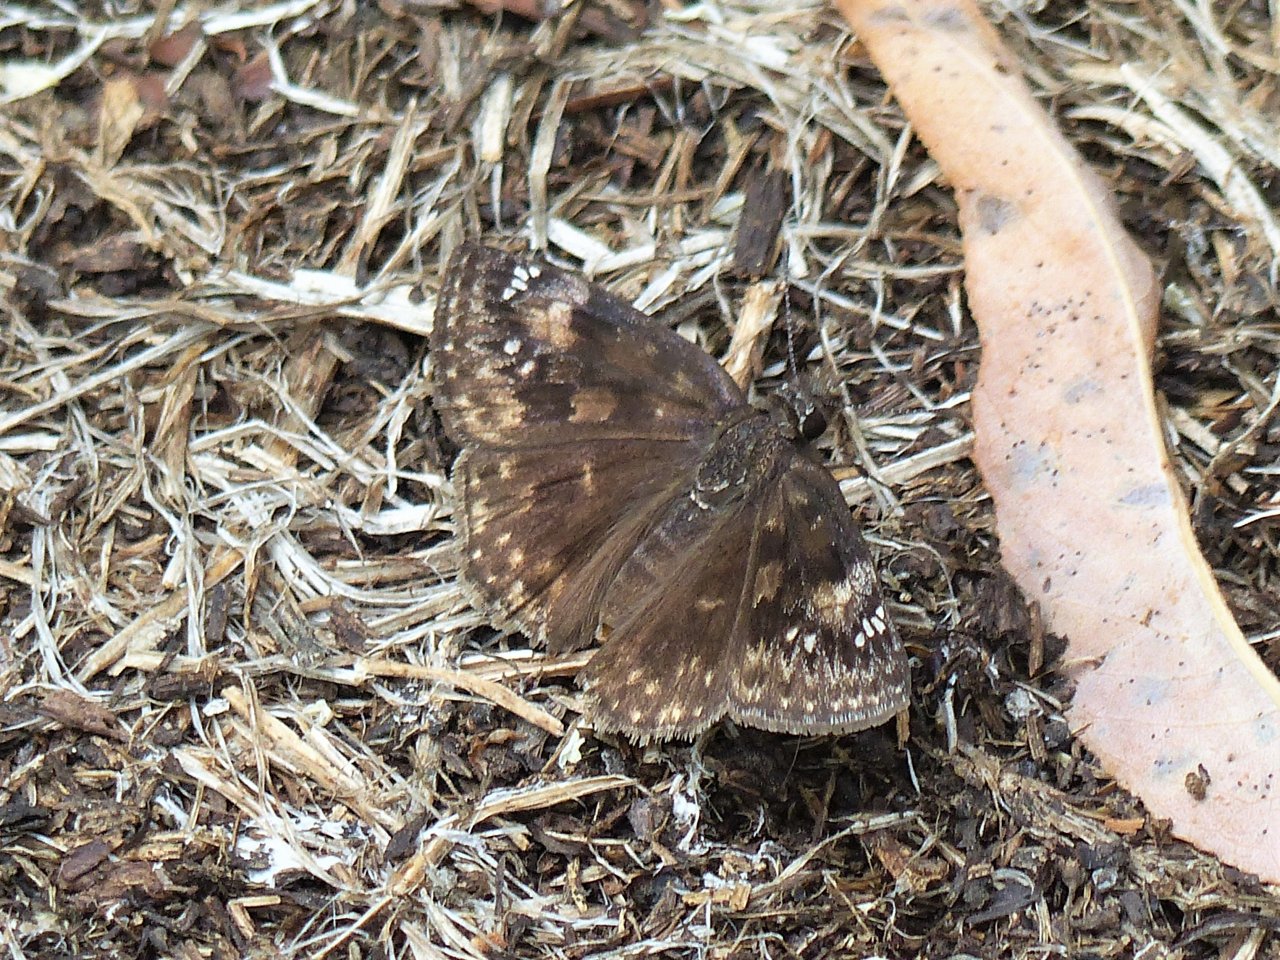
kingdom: Animalia
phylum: Arthropoda
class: Insecta
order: Lepidoptera
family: Hesperiidae
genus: Gesta
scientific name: Gesta
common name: Wild Indigo Duskywing
